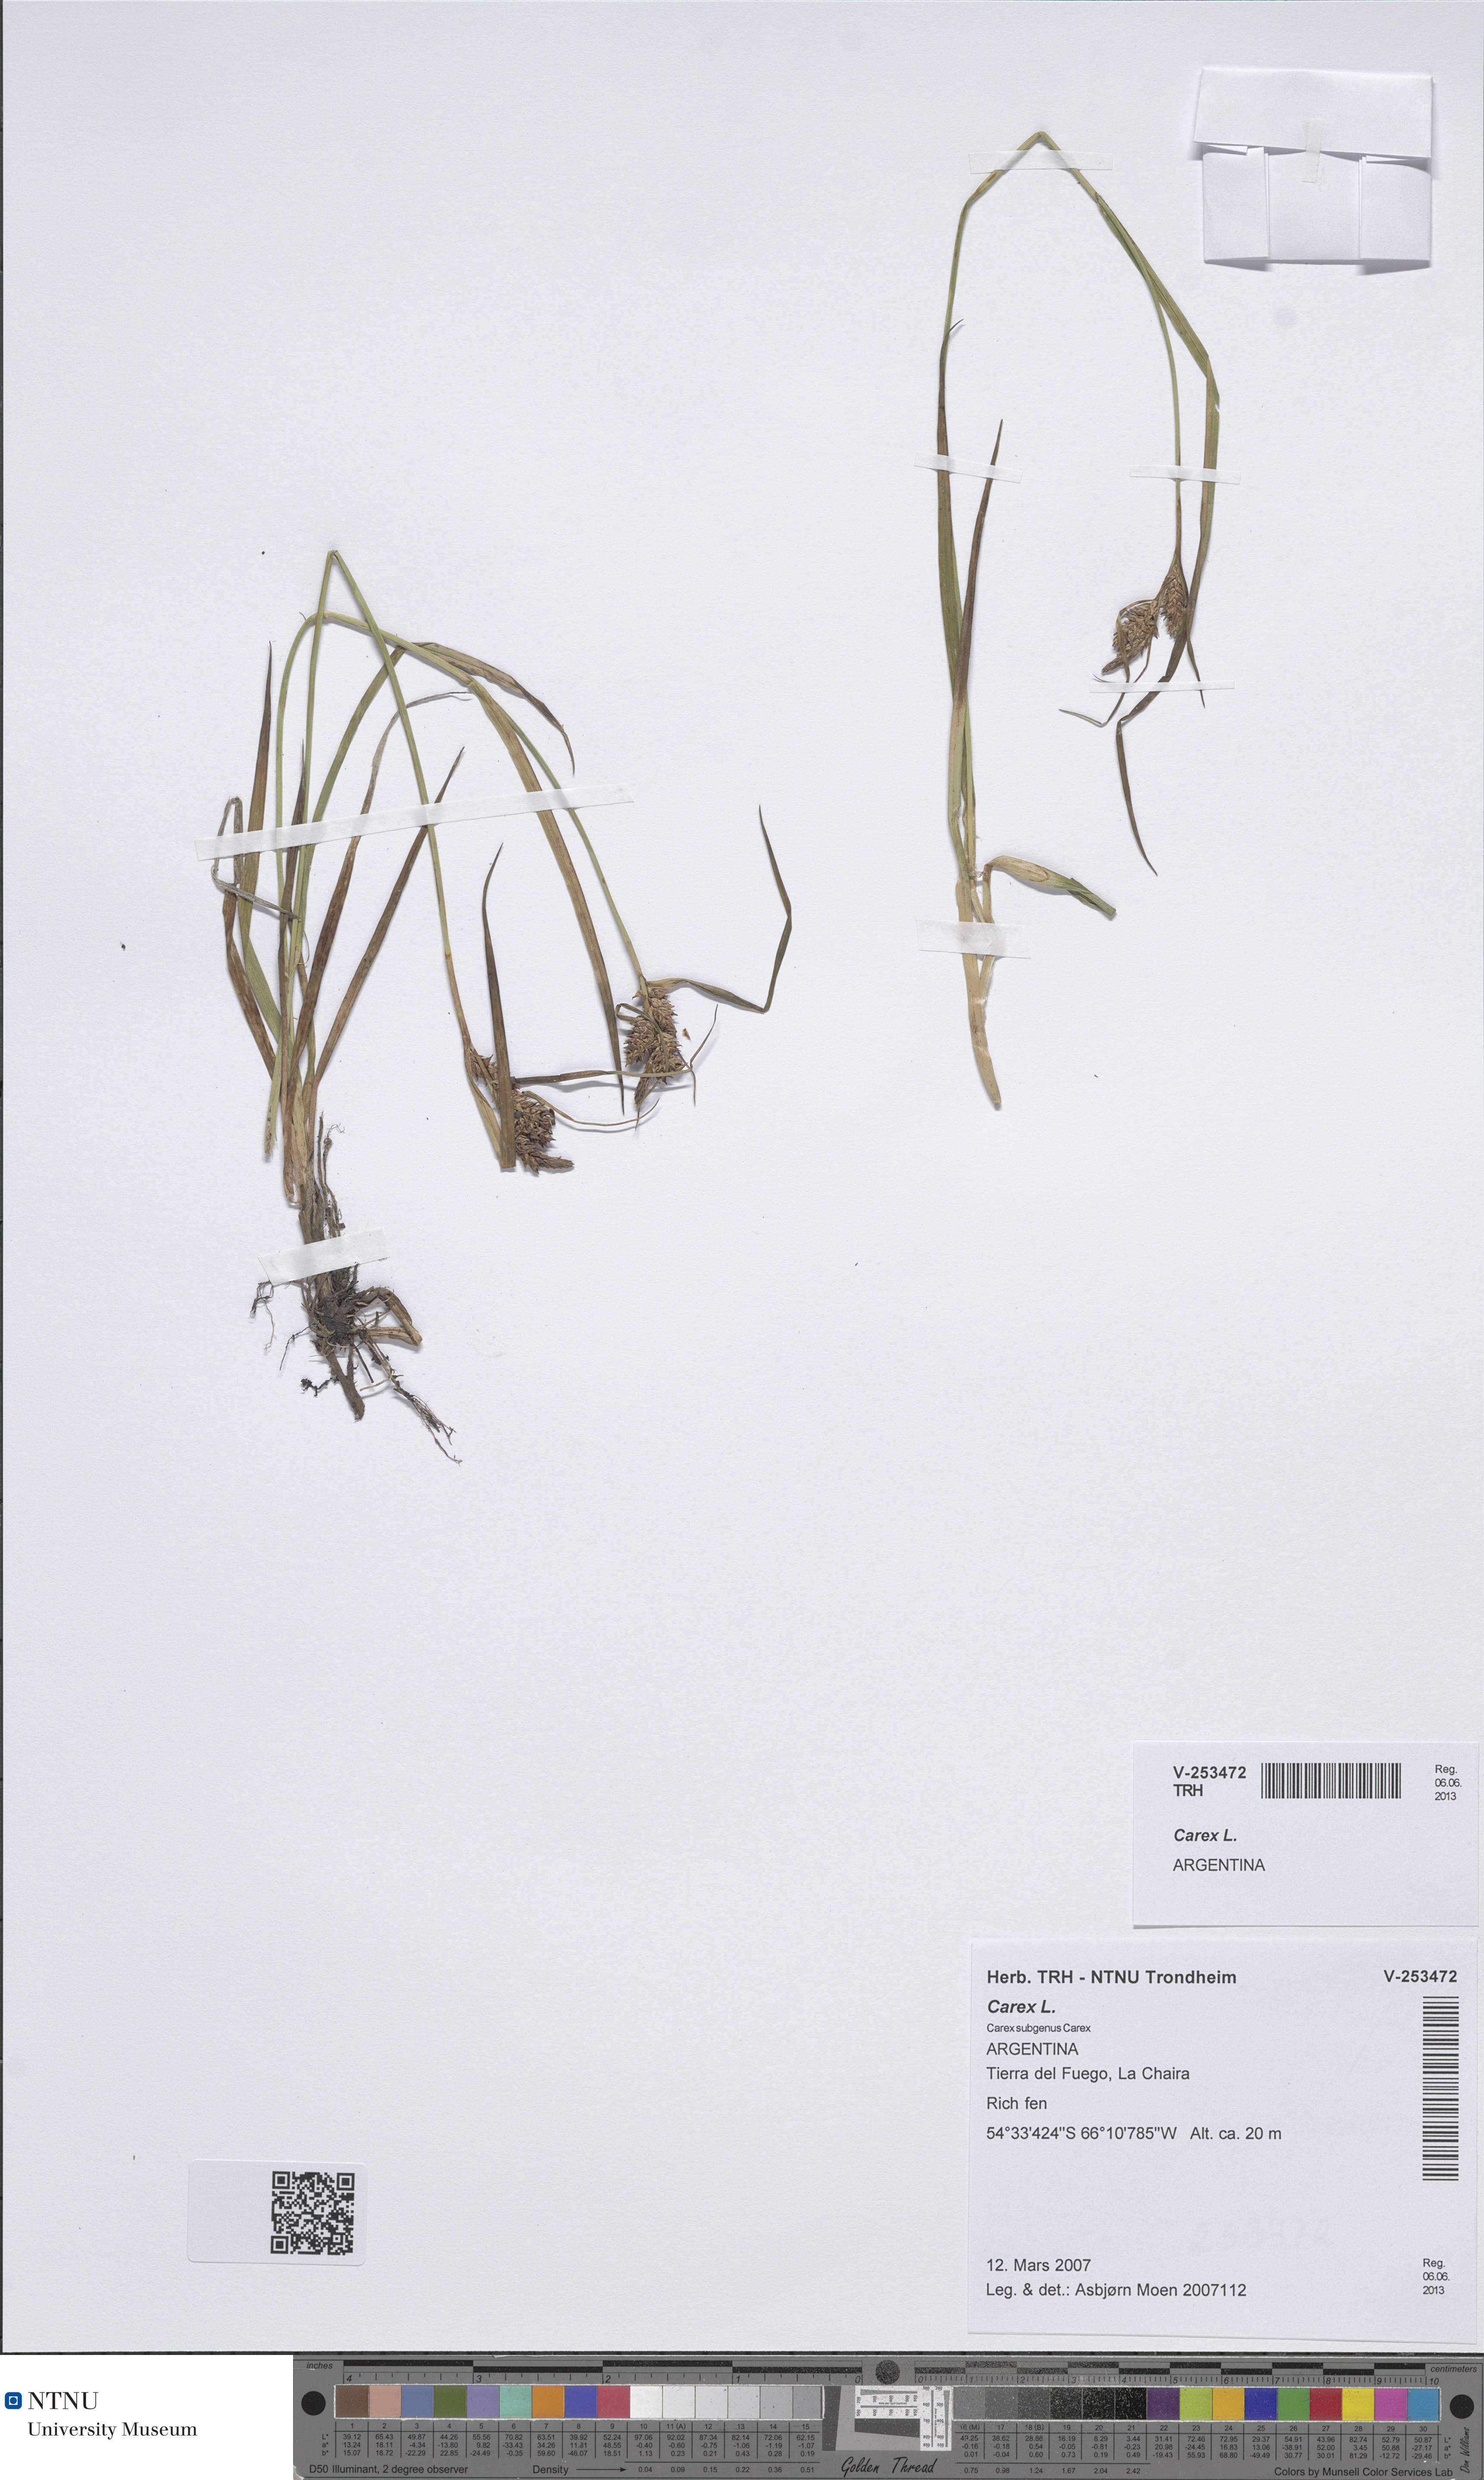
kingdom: Plantae
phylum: Tracheophyta
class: Liliopsida
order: Poales
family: Cyperaceae
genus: Carex
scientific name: Carex
